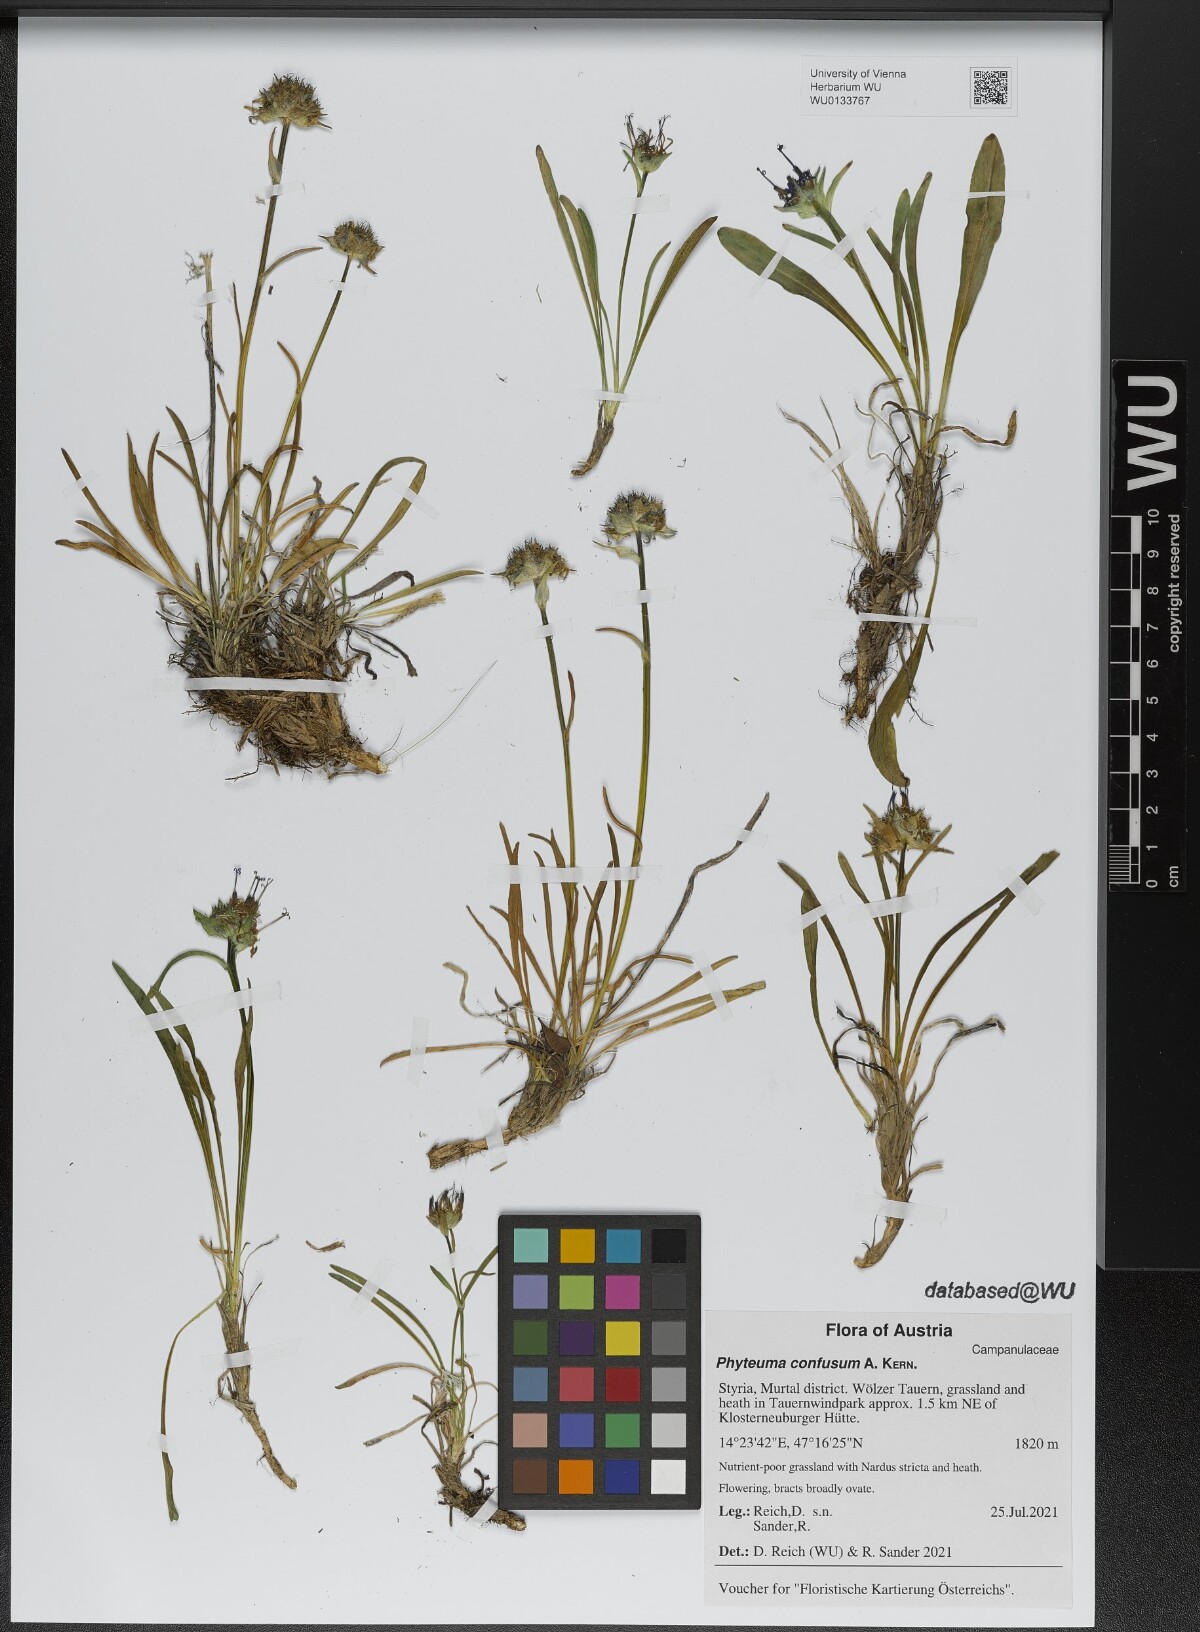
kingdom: Plantae
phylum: Tracheophyta
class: Magnoliopsida
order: Asterales
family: Campanulaceae
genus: Phyteuma
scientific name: Phyteuma confusum
